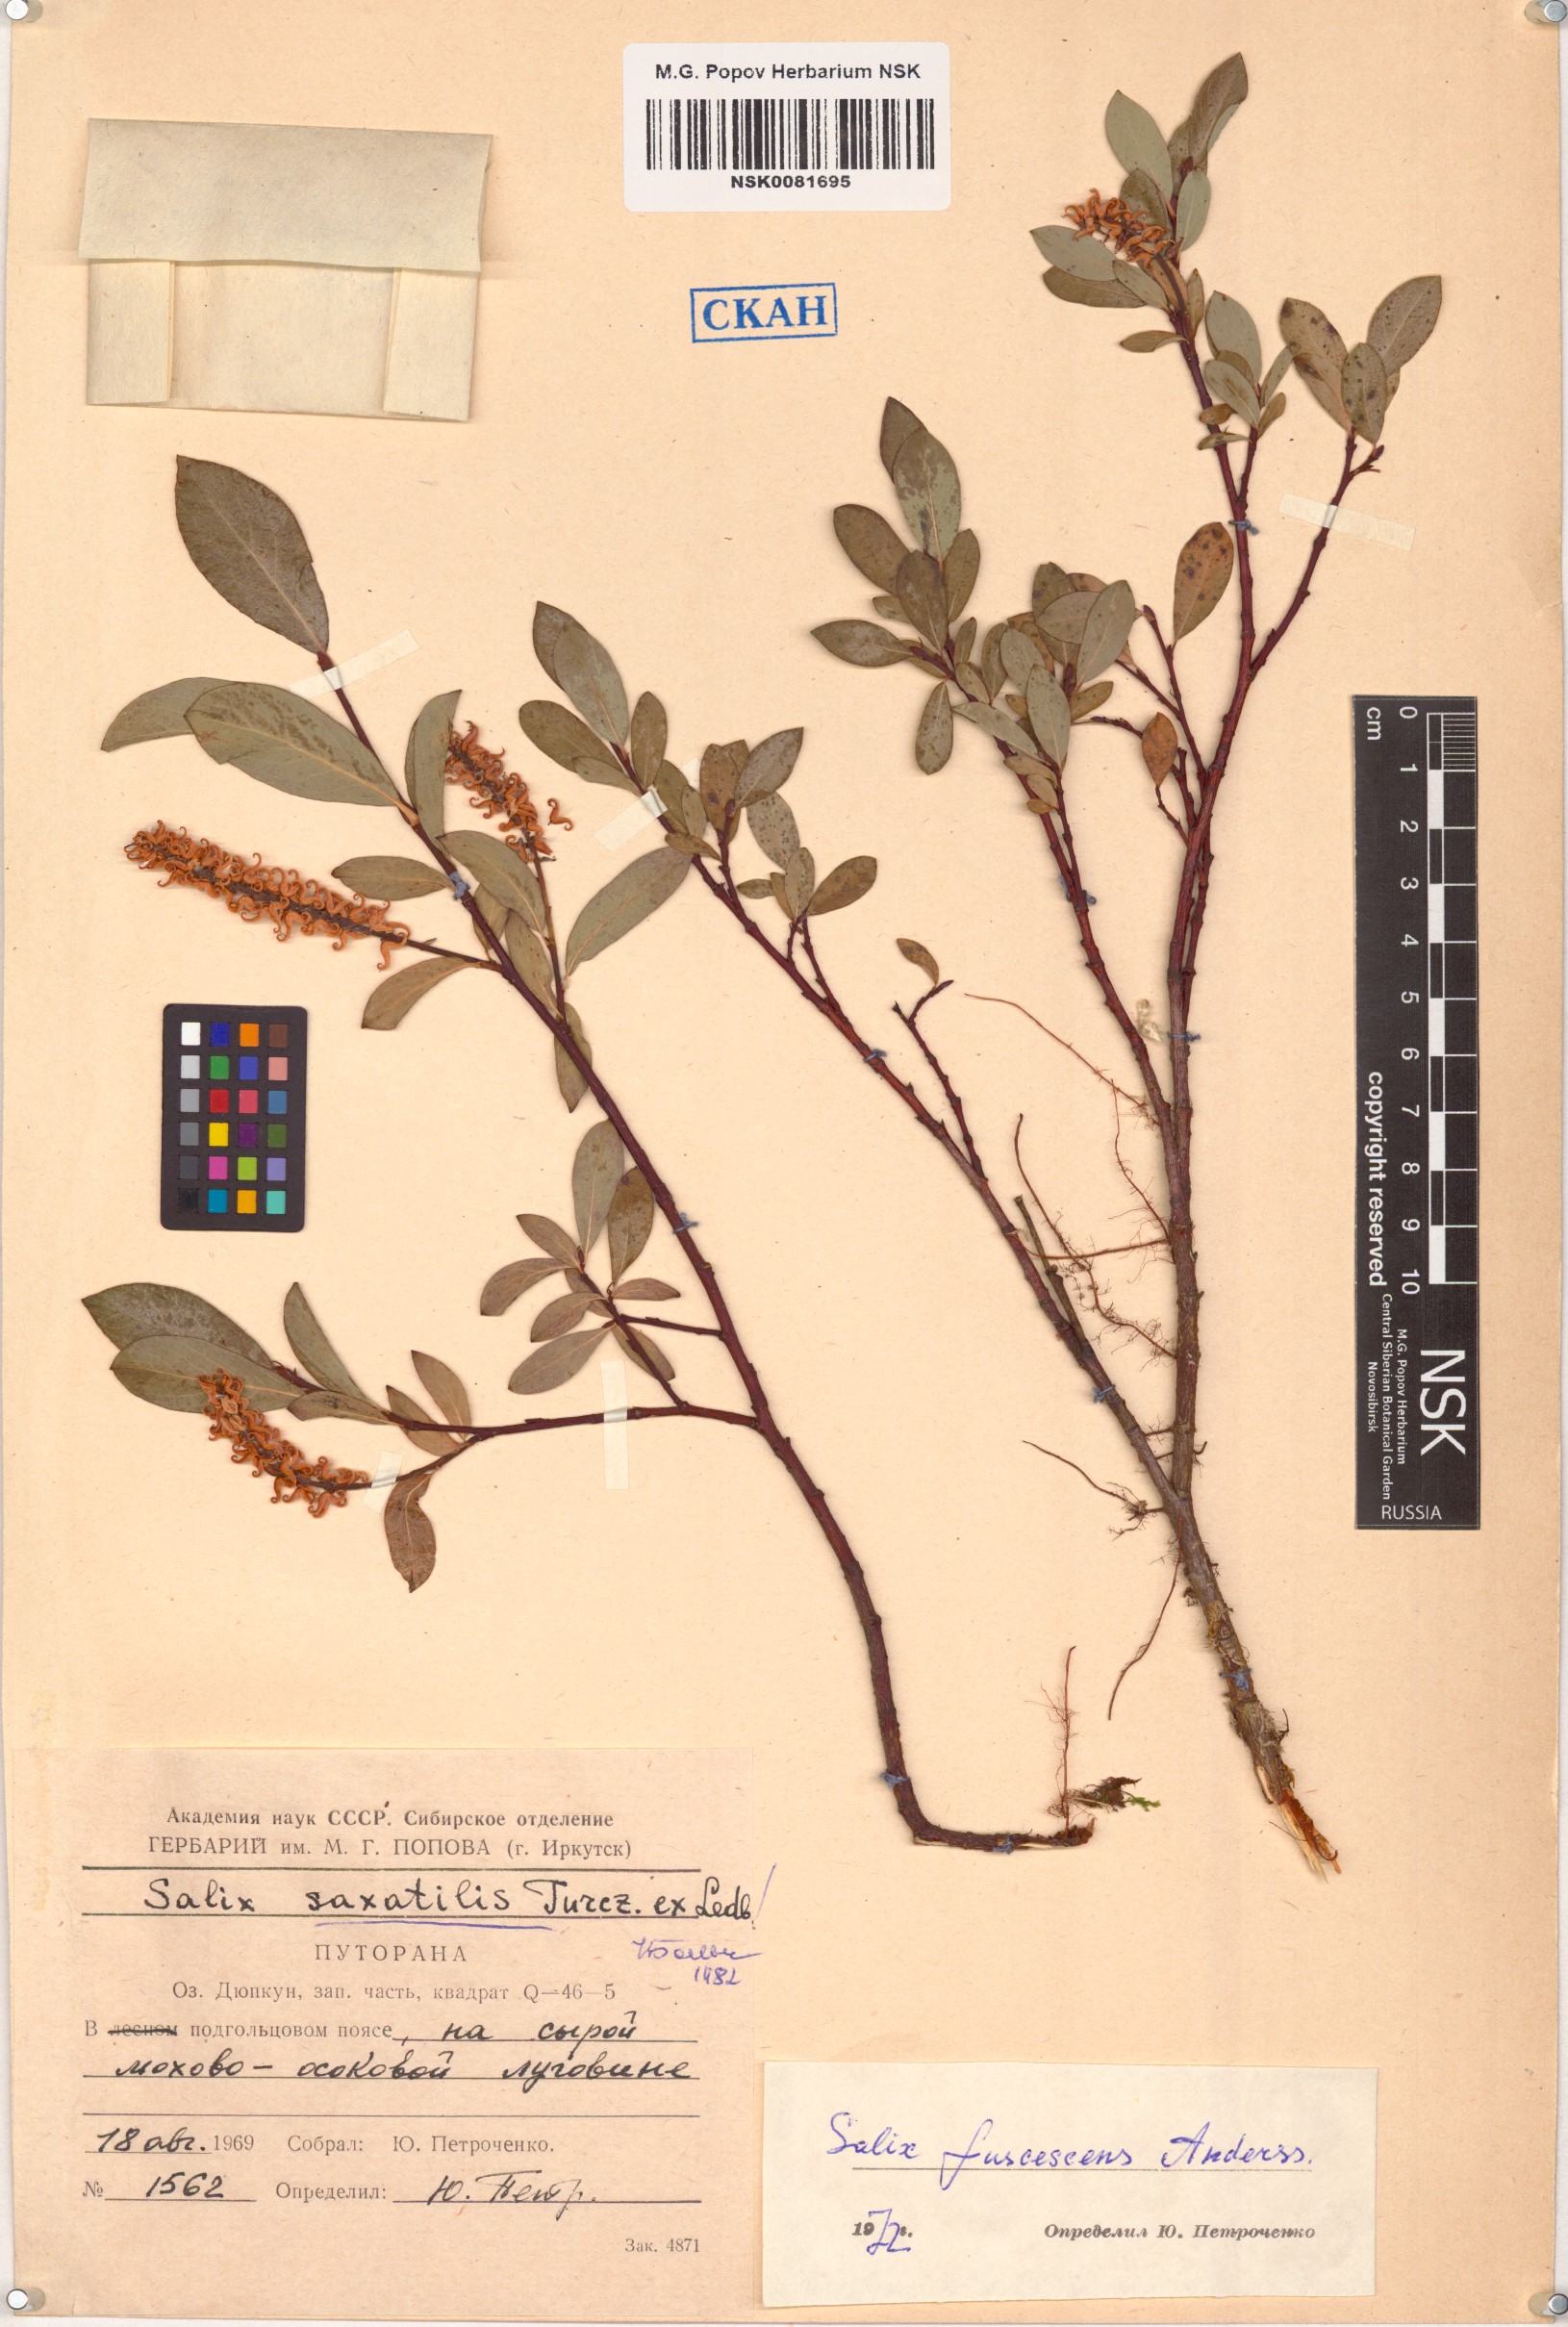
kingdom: Plantae
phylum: Tracheophyta
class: Magnoliopsida
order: Malpighiales
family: Salicaceae
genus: Salix
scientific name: Salix saxatilis
